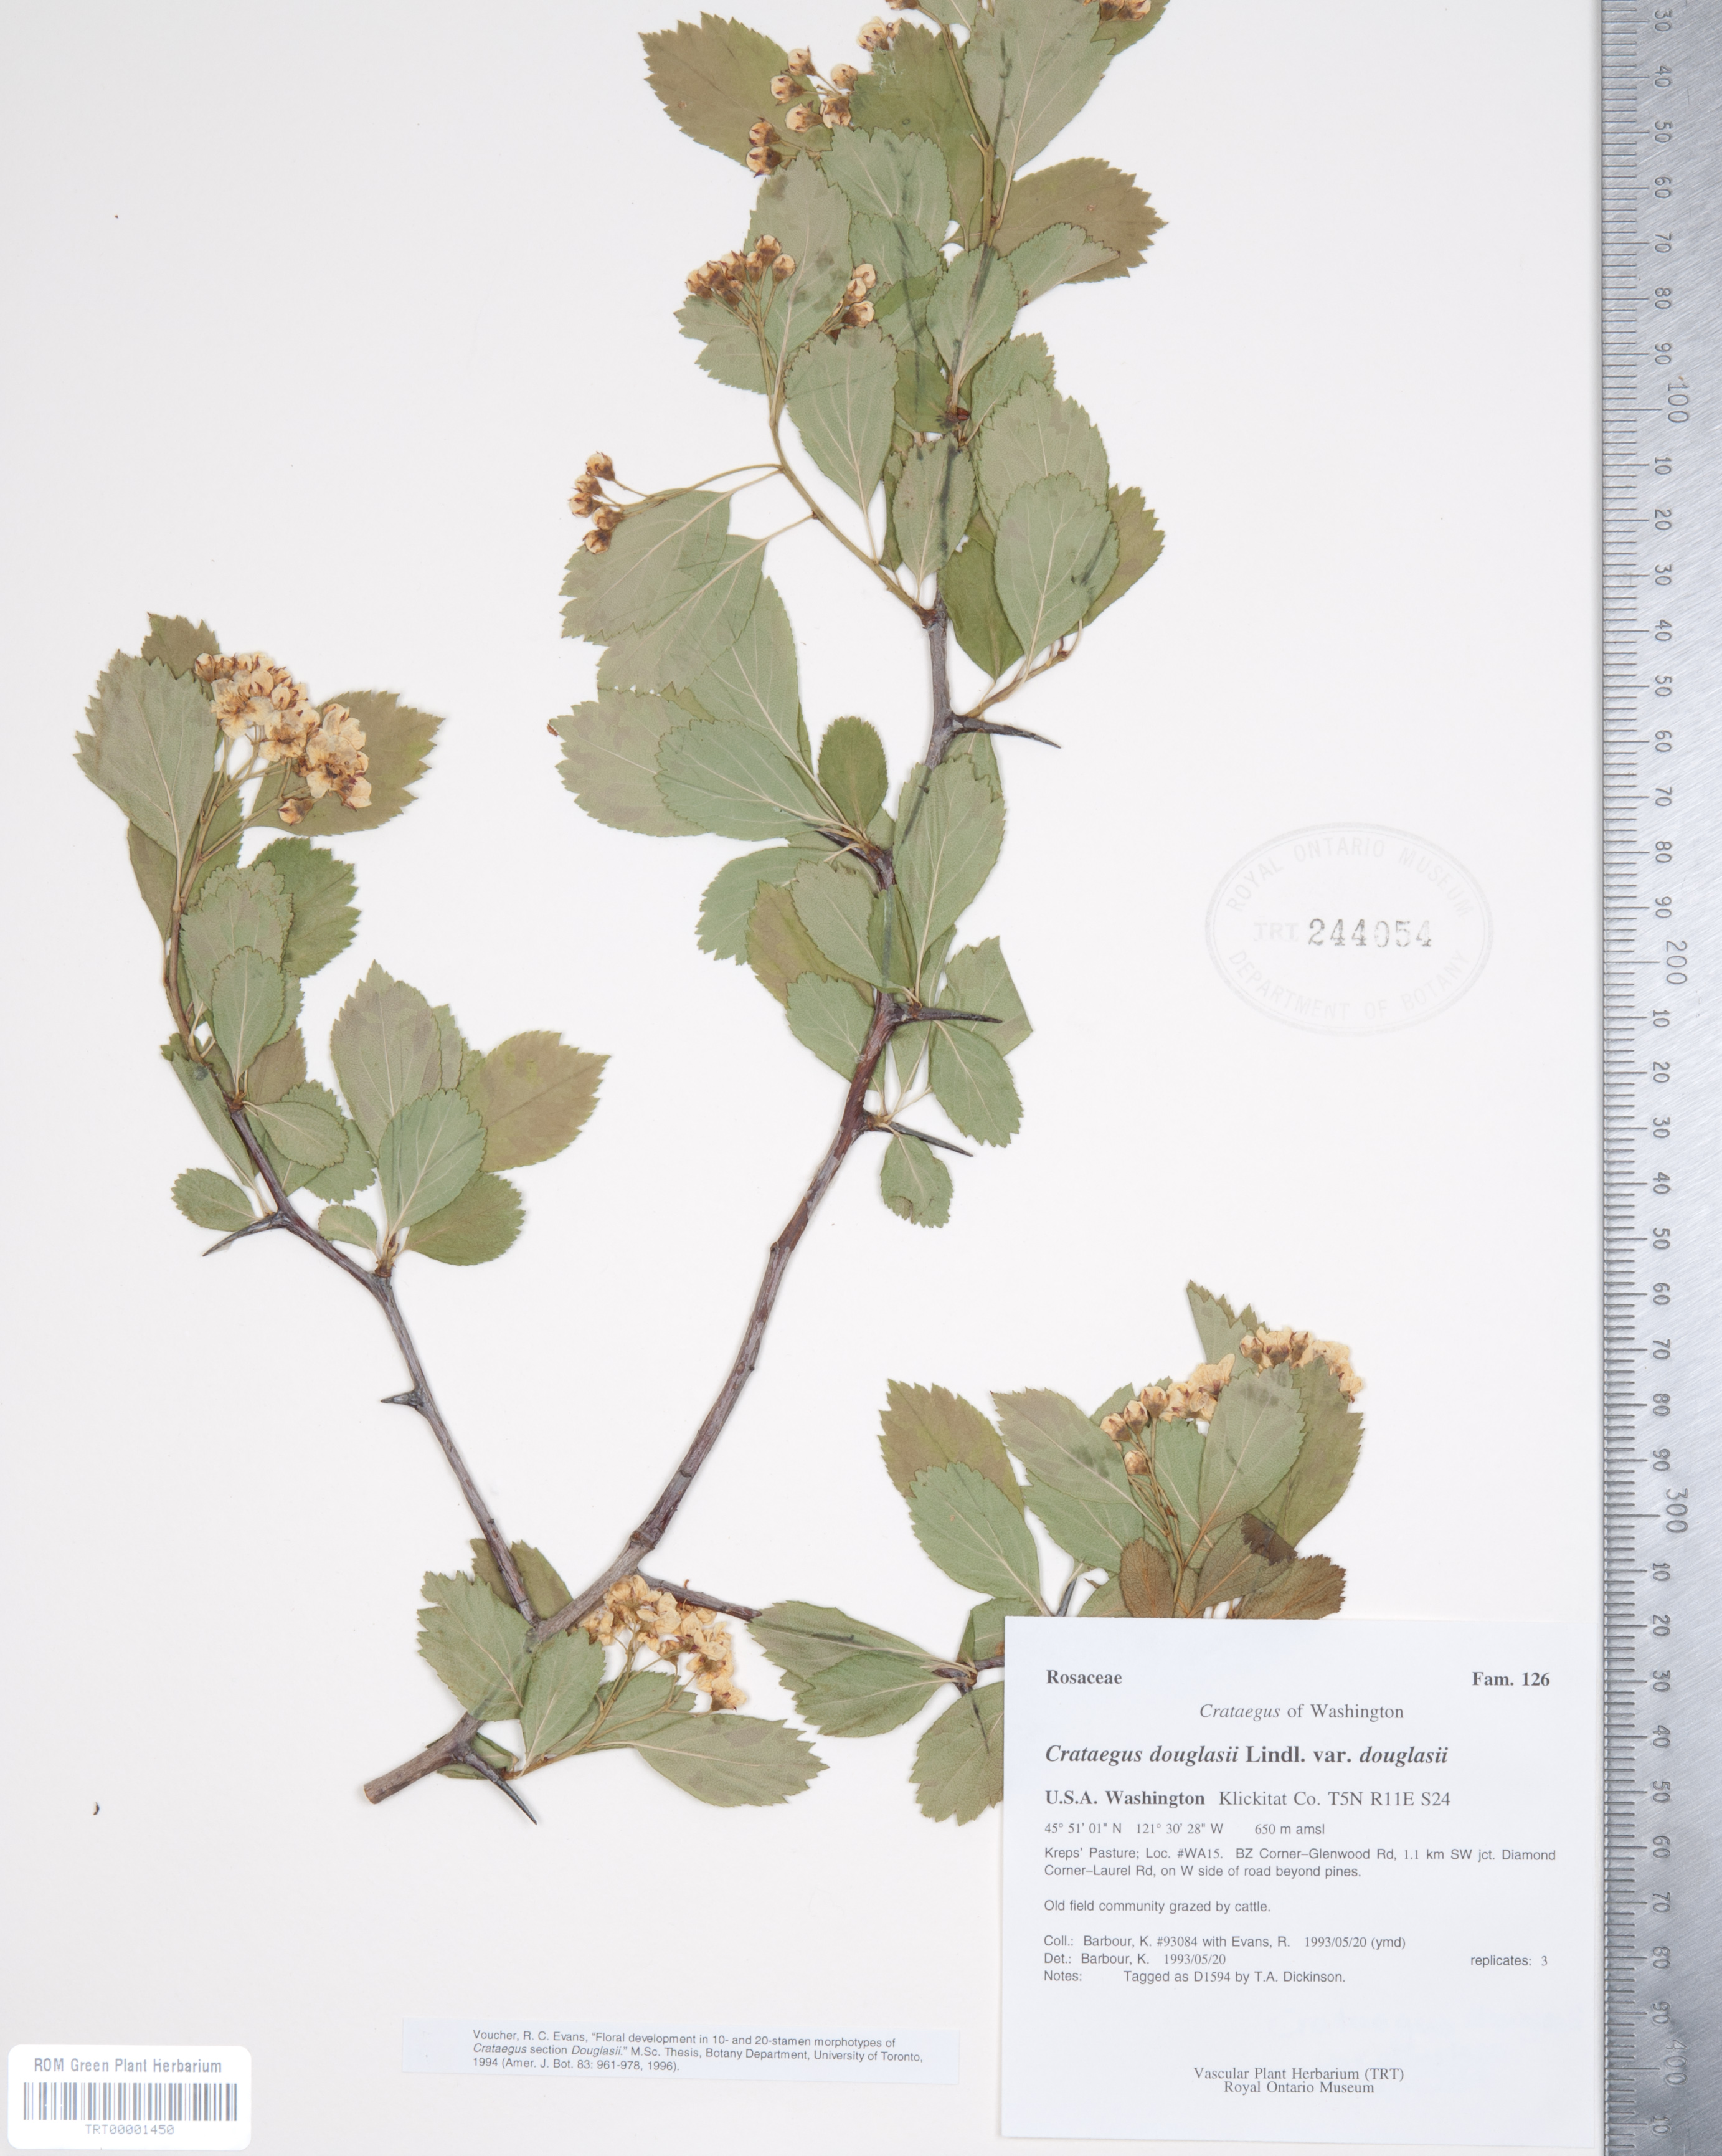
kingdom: Plantae
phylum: Tracheophyta
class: Magnoliopsida
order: Rosales
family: Rosaceae
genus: Crataegus
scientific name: Crataegus douglasii
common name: Black hawthorn
